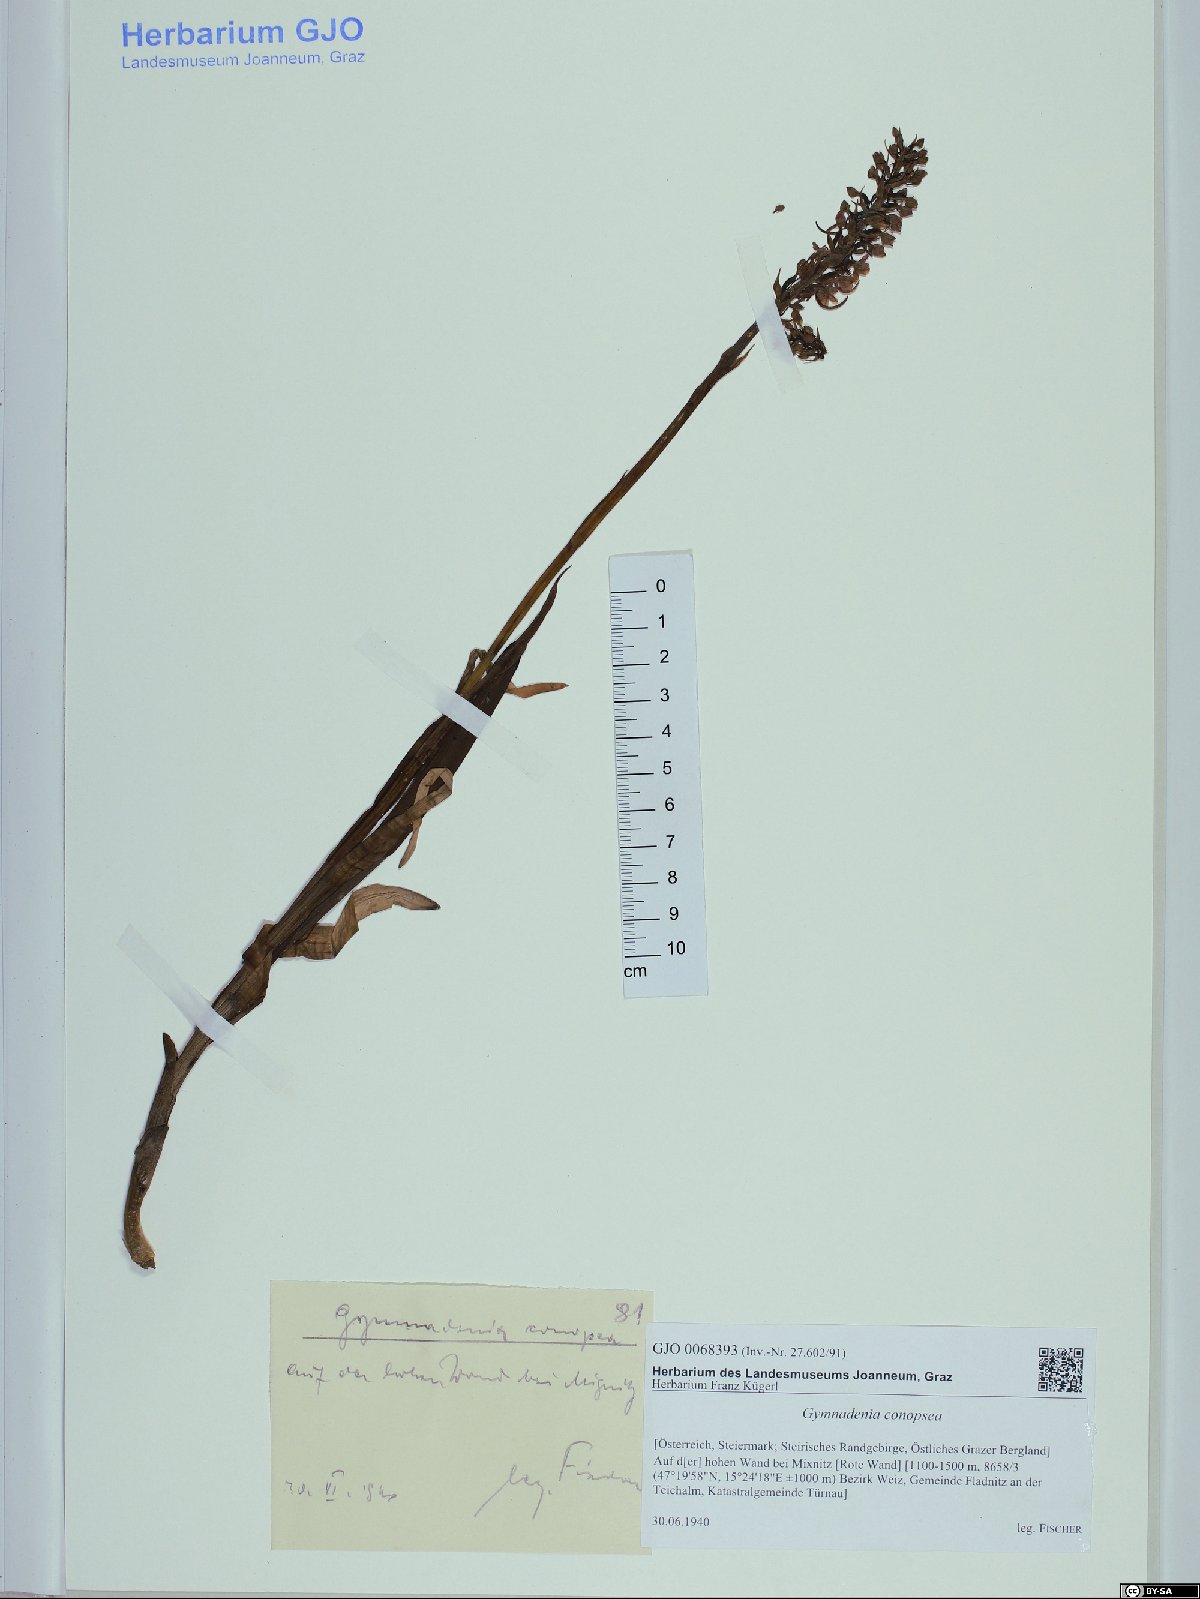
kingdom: Plantae
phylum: Tracheophyta
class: Liliopsida
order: Asparagales
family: Orchidaceae
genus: Gymnadenia
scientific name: Gymnadenia conopsea
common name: Fragrant orchid
